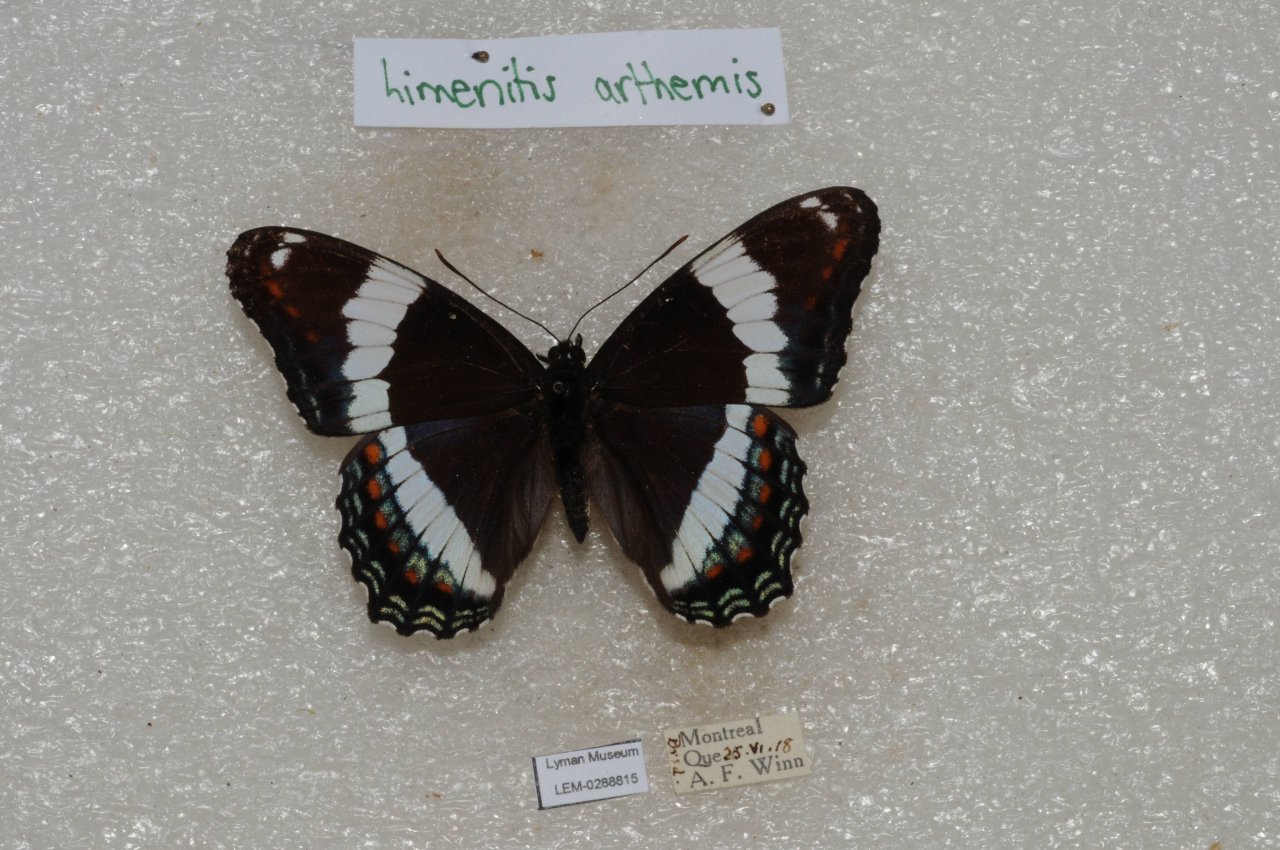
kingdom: Animalia
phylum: Arthropoda
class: Insecta
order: Lepidoptera
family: Nymphalidae
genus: Limenitis
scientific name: Limenitis arthemis
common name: Red-spotted Admiral
